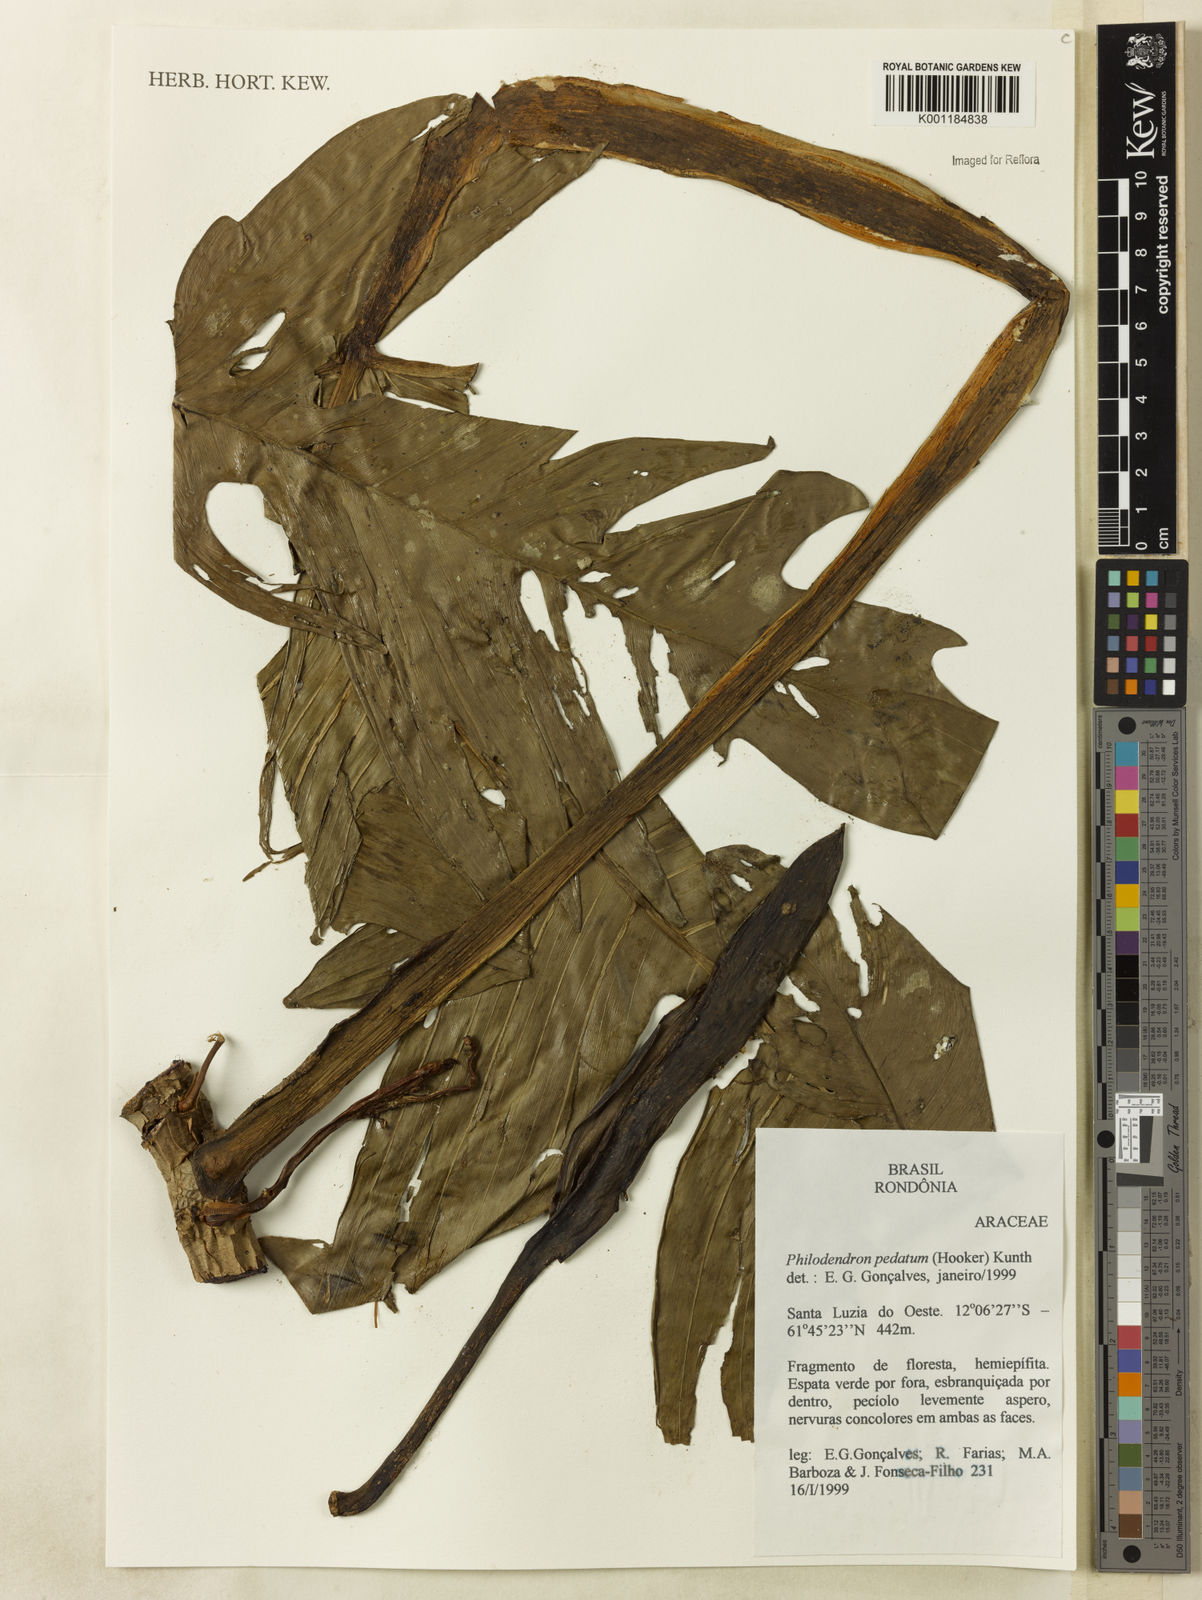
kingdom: Plantae
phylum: Tracheophyta
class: Liliopsida
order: Alismatales
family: Araceae
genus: Philodendron
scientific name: Philodendron pedatum
